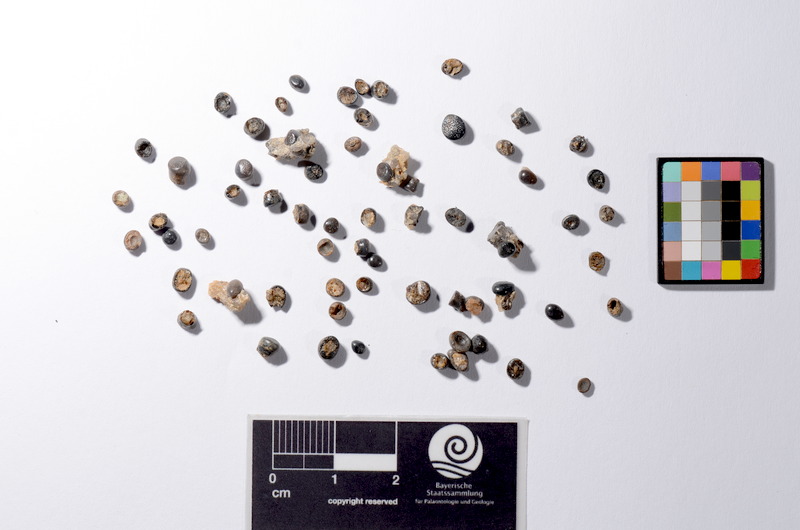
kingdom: Animalia
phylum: Chordata
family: Semionotidae
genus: Sargodon
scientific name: Sargodon tomicus
